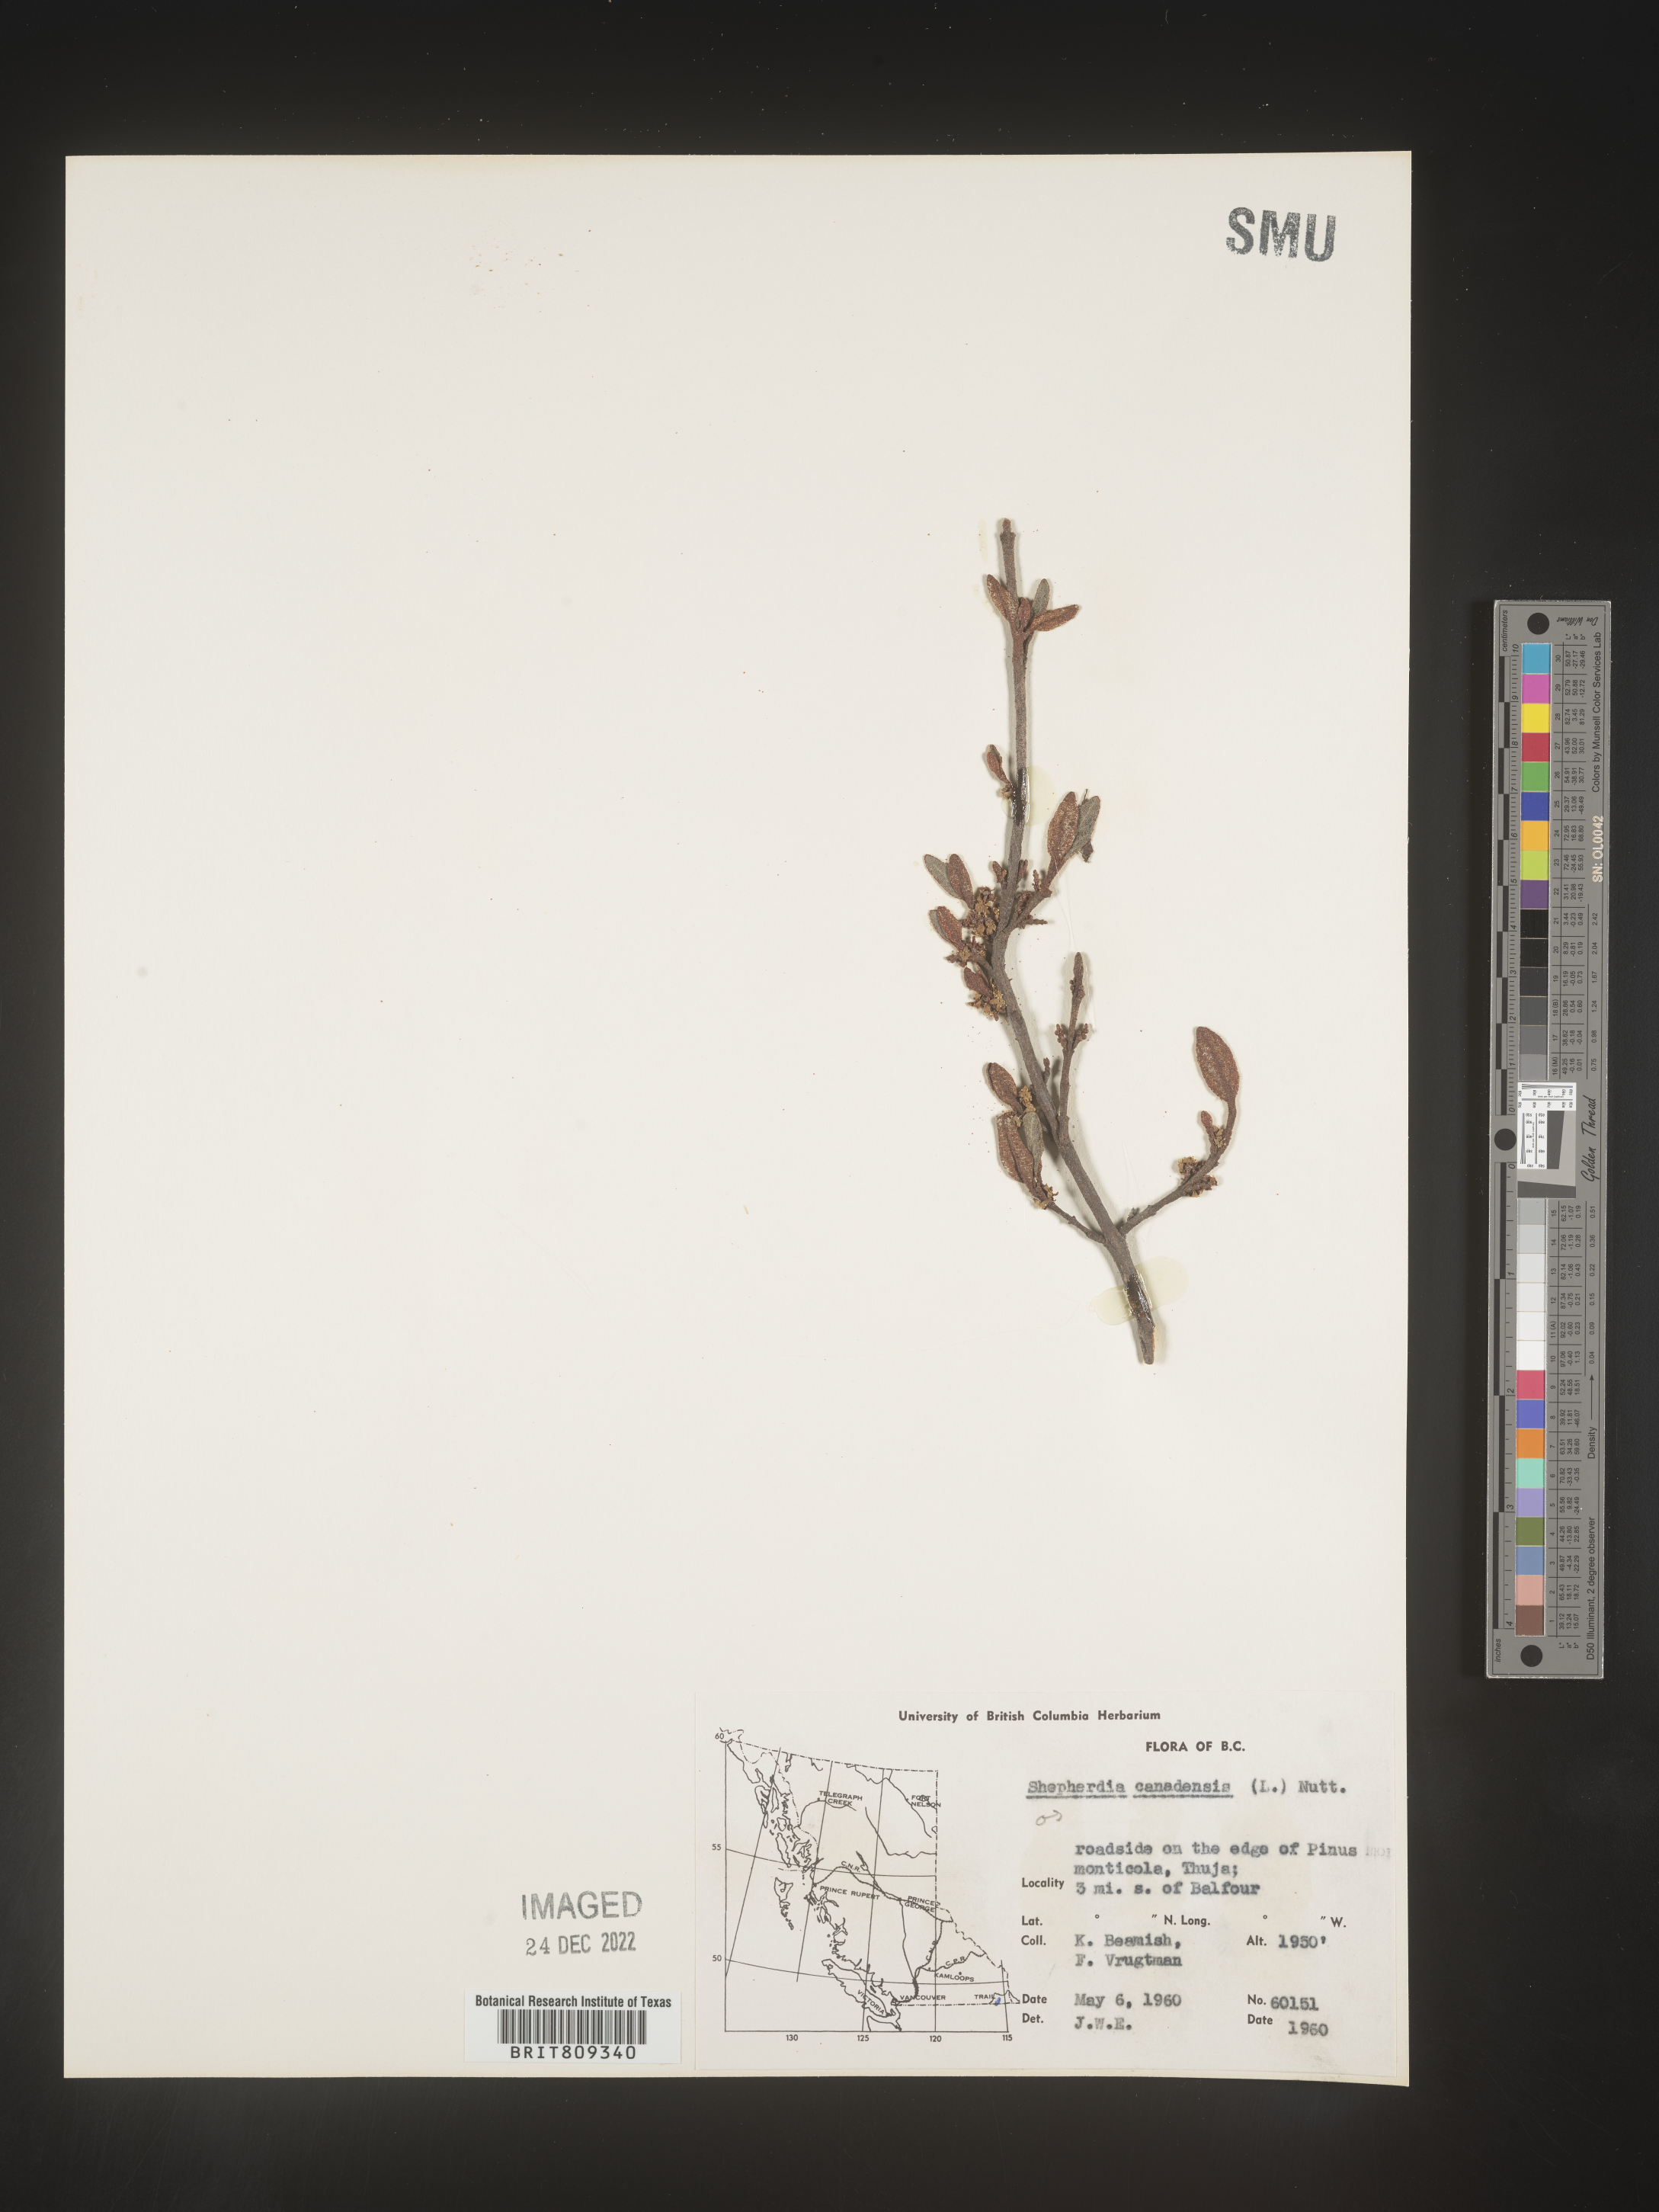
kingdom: Plantae
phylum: Tracheophyta
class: Magnoliopsida
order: Rosales
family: Elaeagnaceae
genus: Shepherdia
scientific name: Shepherdia canadensis
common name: Soapberry
